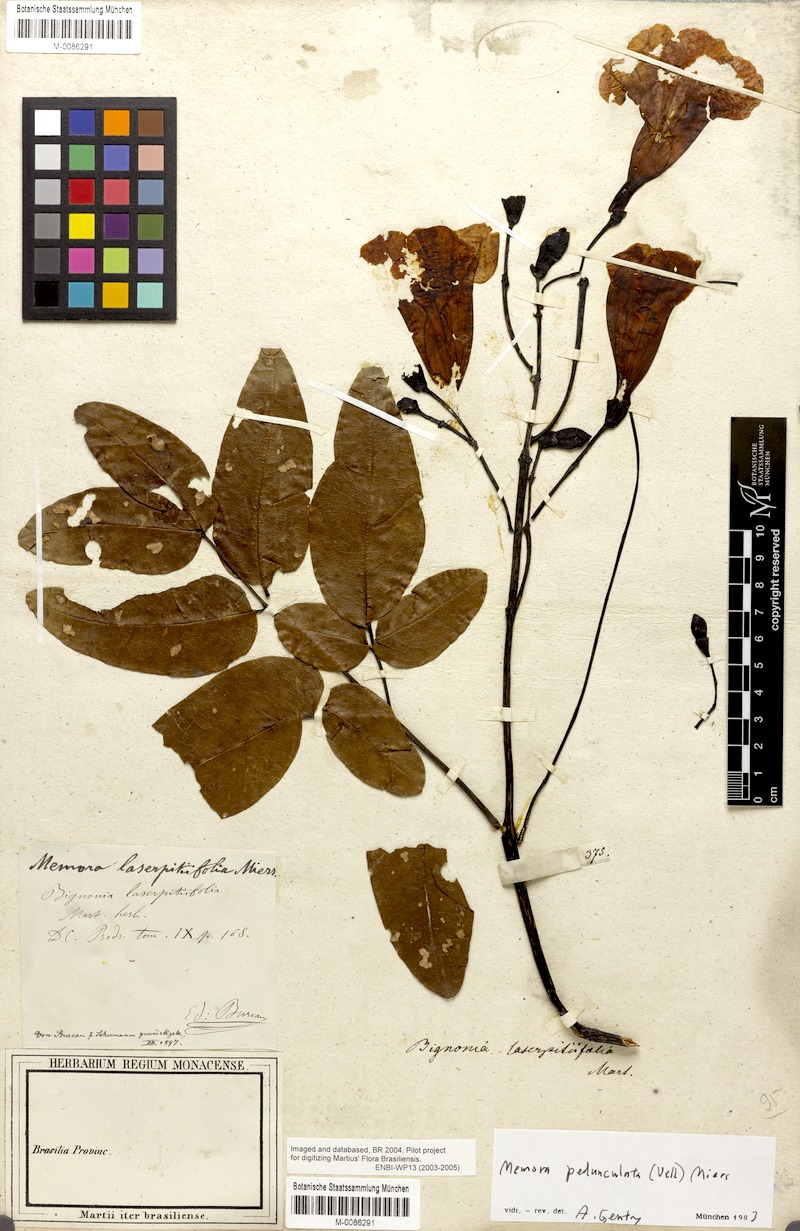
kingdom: Plantae
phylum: Tracheophyta
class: Magnoliopsida
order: Lamiales
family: Bignoniaceae
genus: Adenocalymma
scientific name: Adenocalymma pedunculatum
